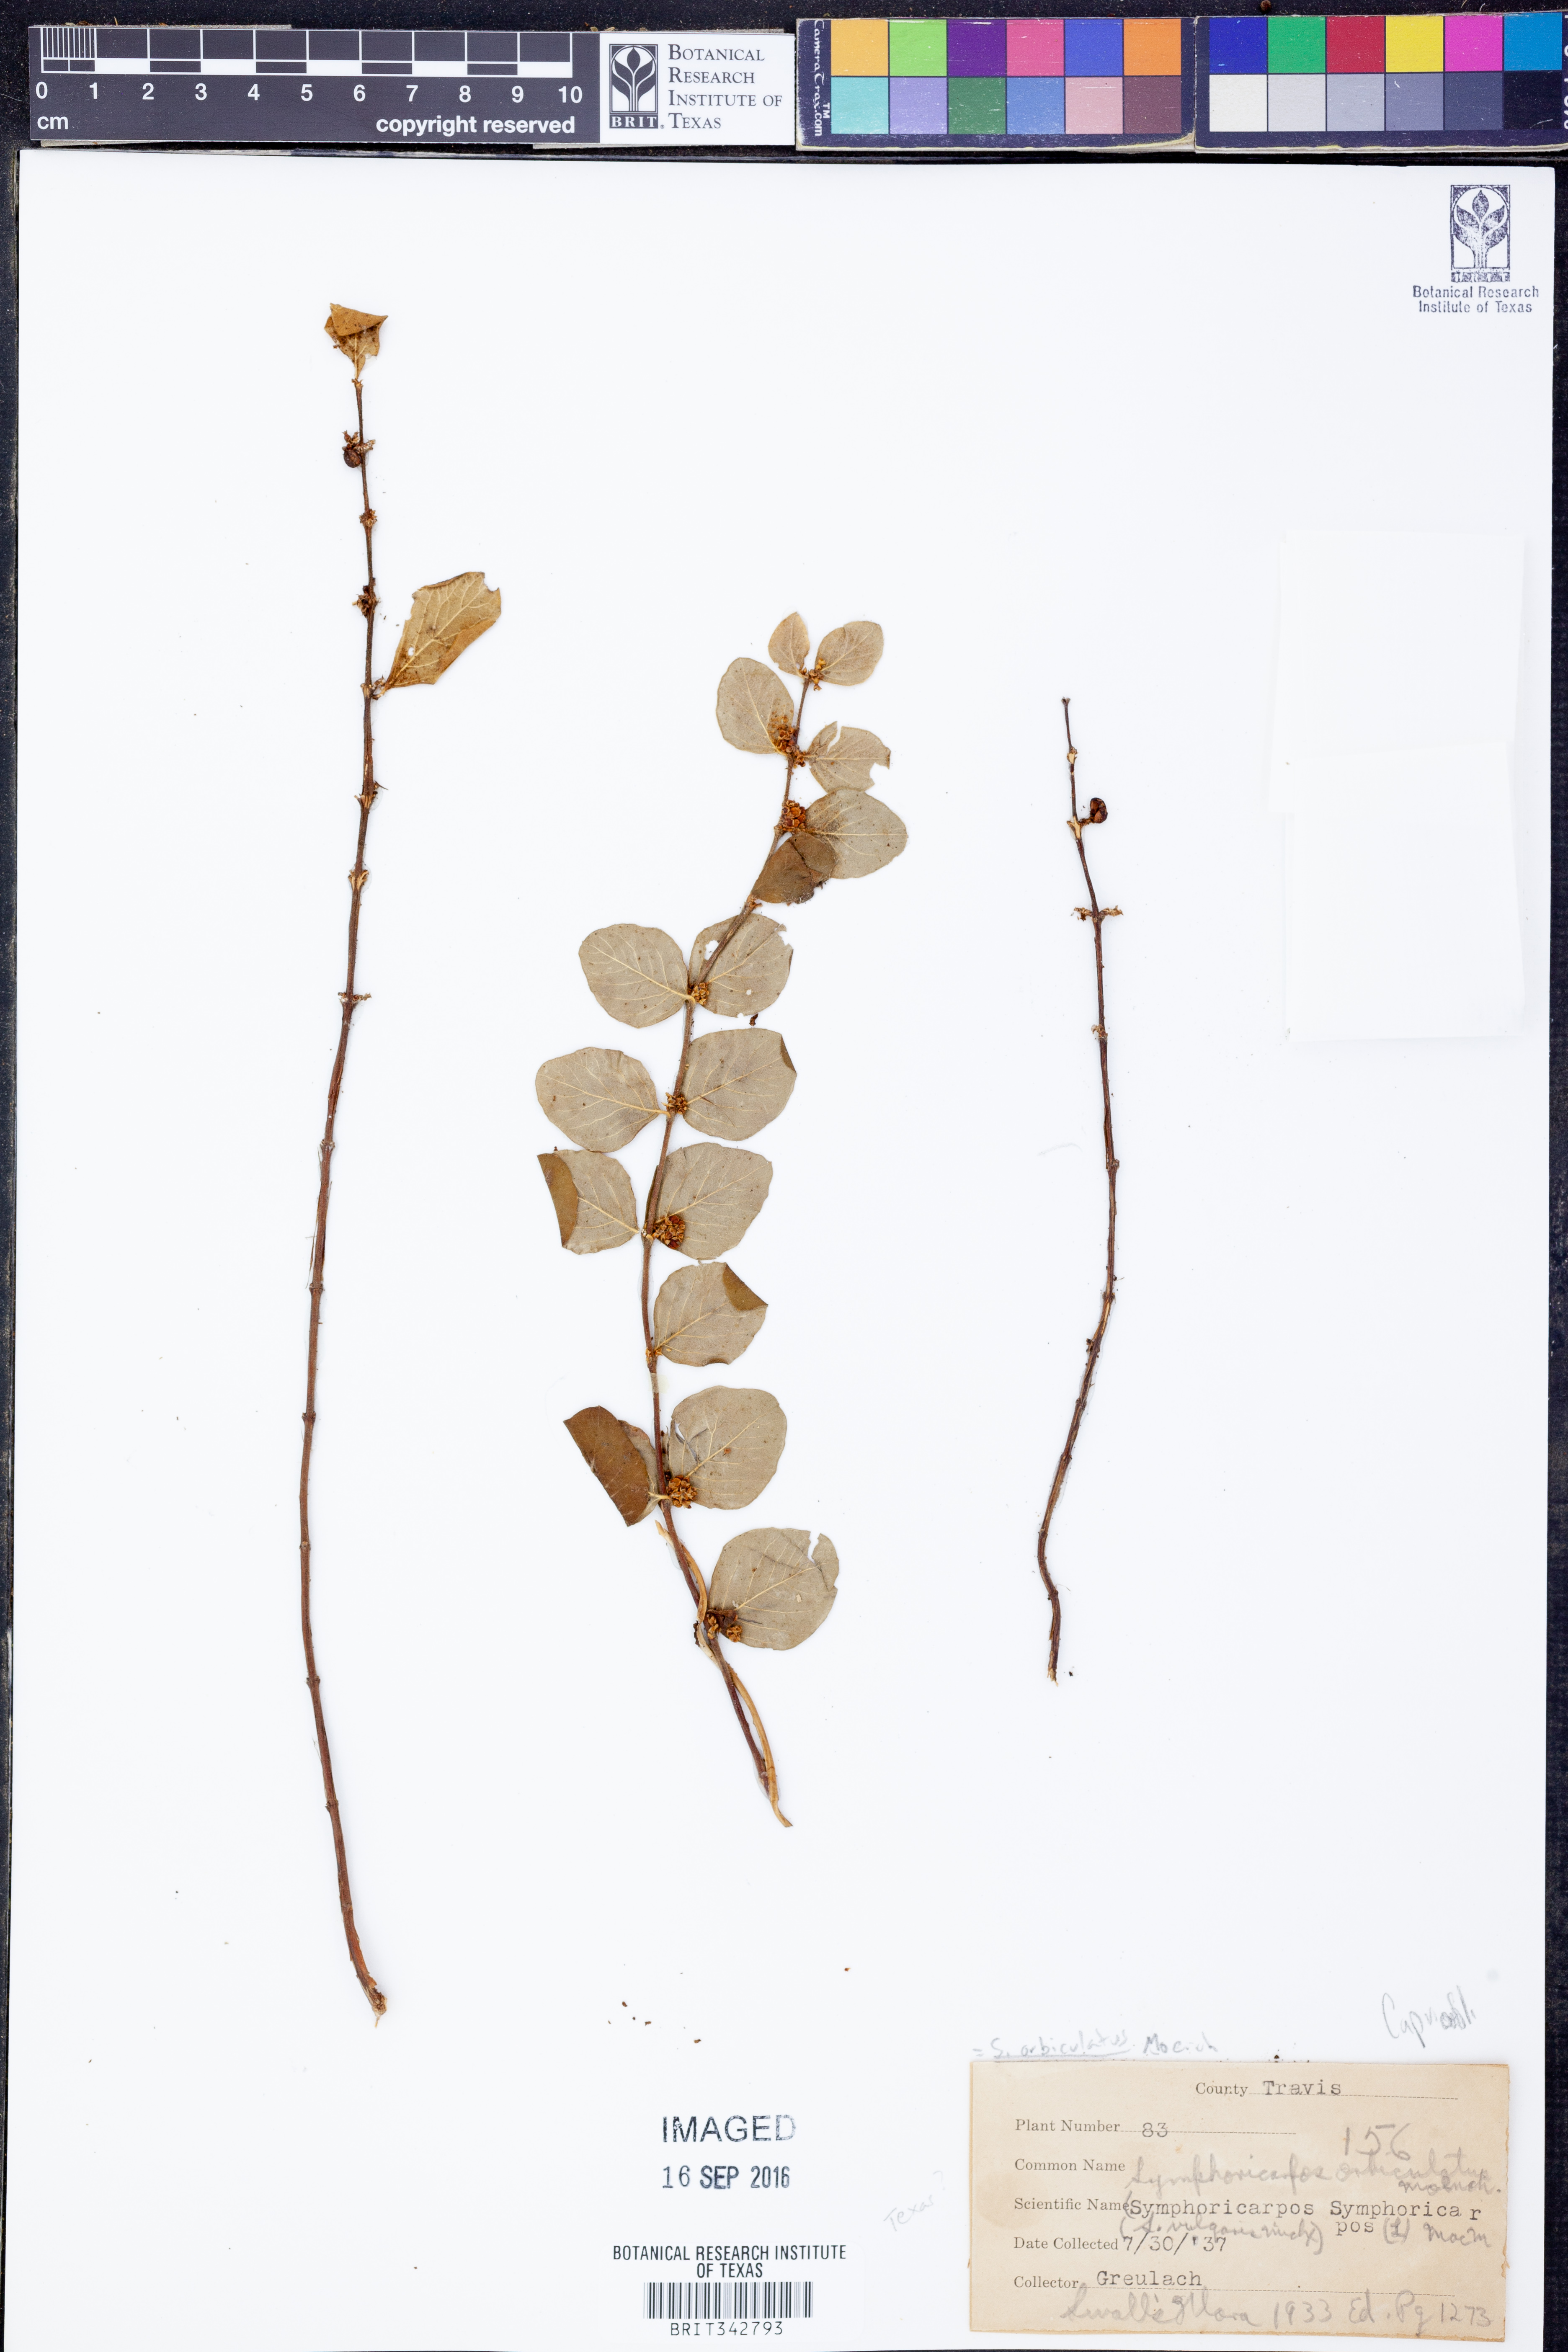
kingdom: Plantae
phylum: Tracheophyta
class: Magnoliopsida
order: Dipsacales
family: Caprifoliaceae
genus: Symphoricarpos
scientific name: Symphoricarpos orbiculatus
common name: Coralberry
